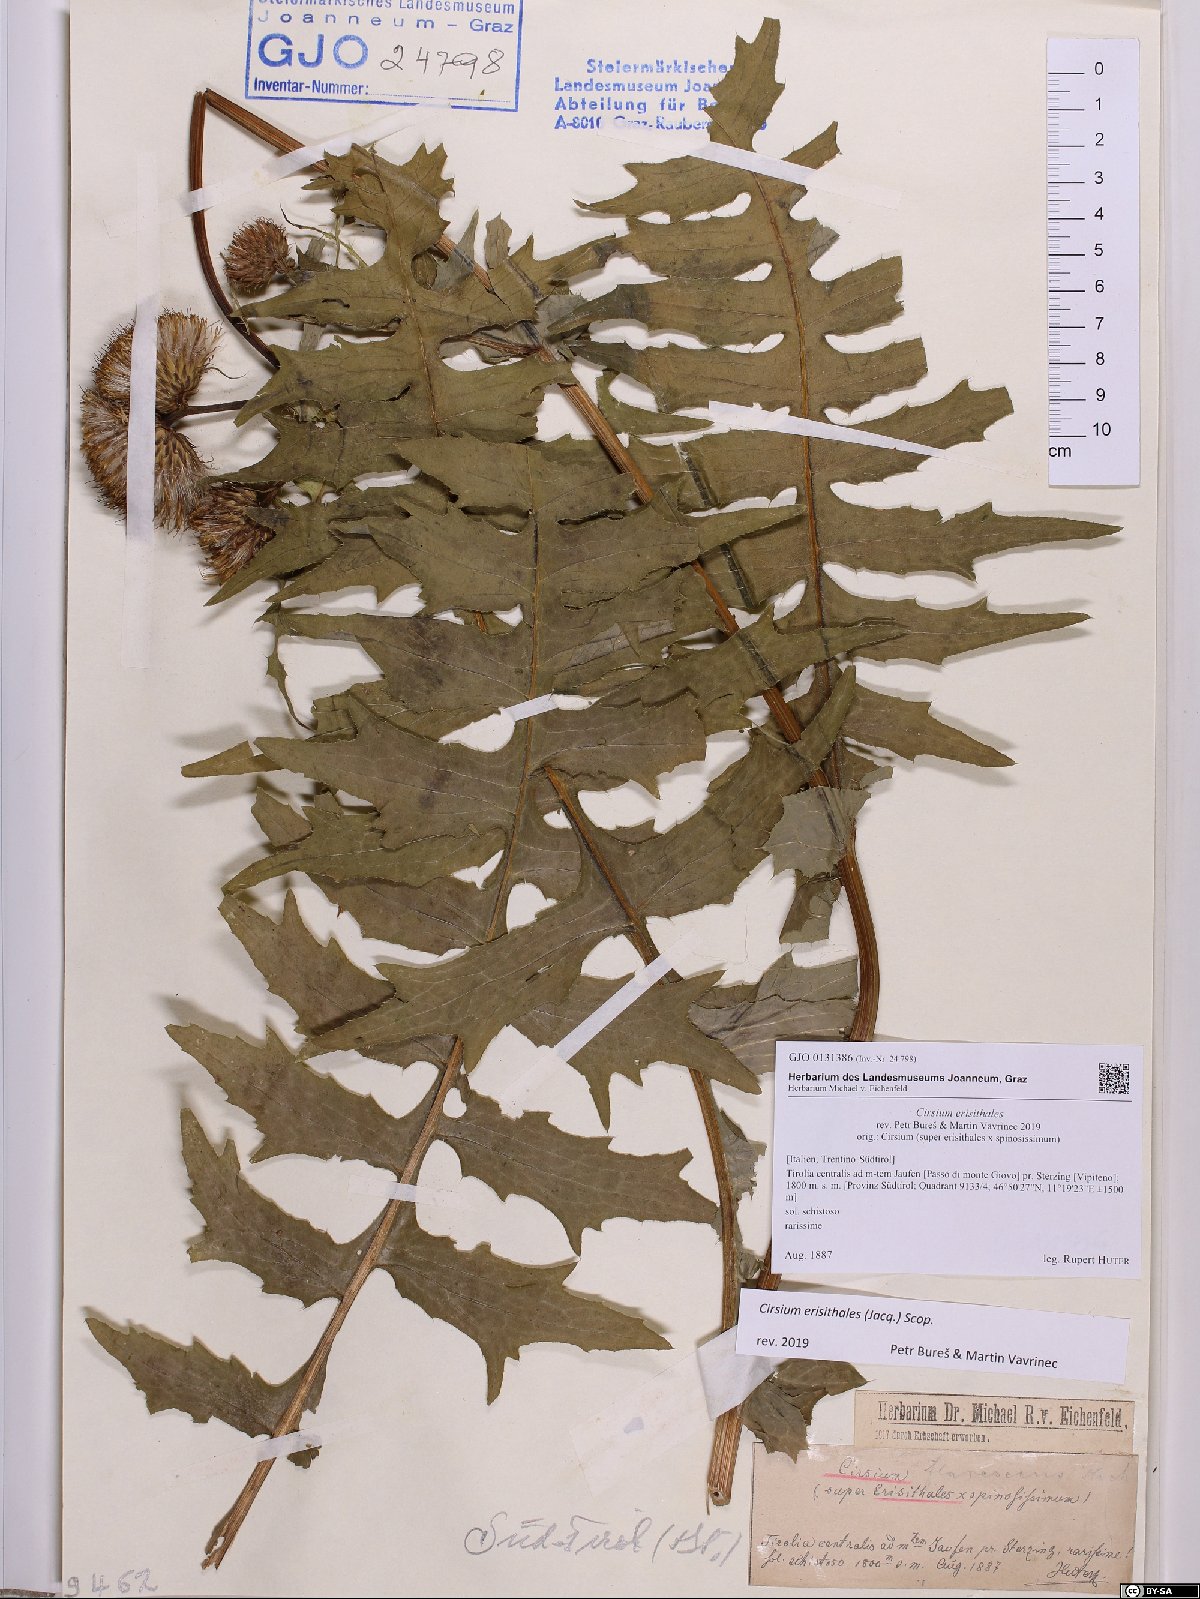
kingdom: Plantae
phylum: Tracheophyta
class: Magnoliopsida
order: Asterales
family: Asteraceae
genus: Cirsium
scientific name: Cirsium erisithales
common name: Yellow thistle
